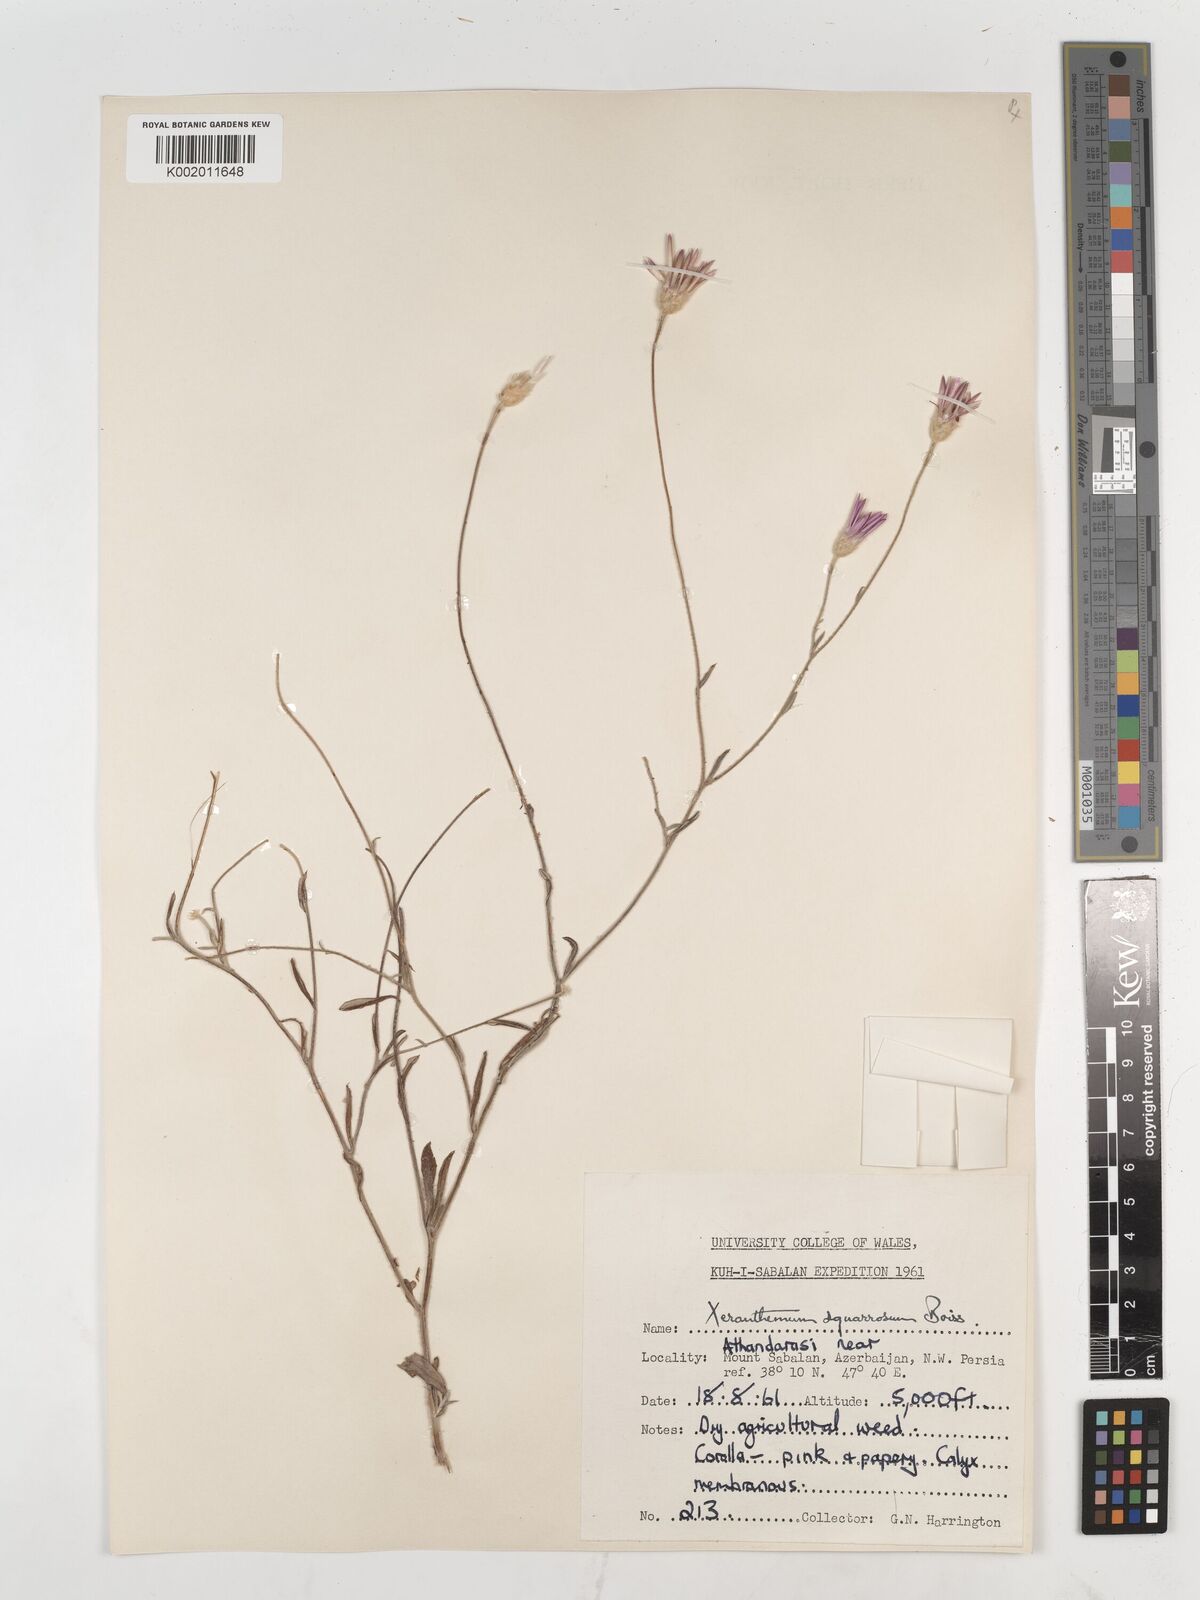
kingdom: Plantae
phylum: Tracheophyta
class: Magnoliopsida
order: Asterales
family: Asteraceae
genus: Xeranthemum
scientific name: Xeranthemum squarrosum
